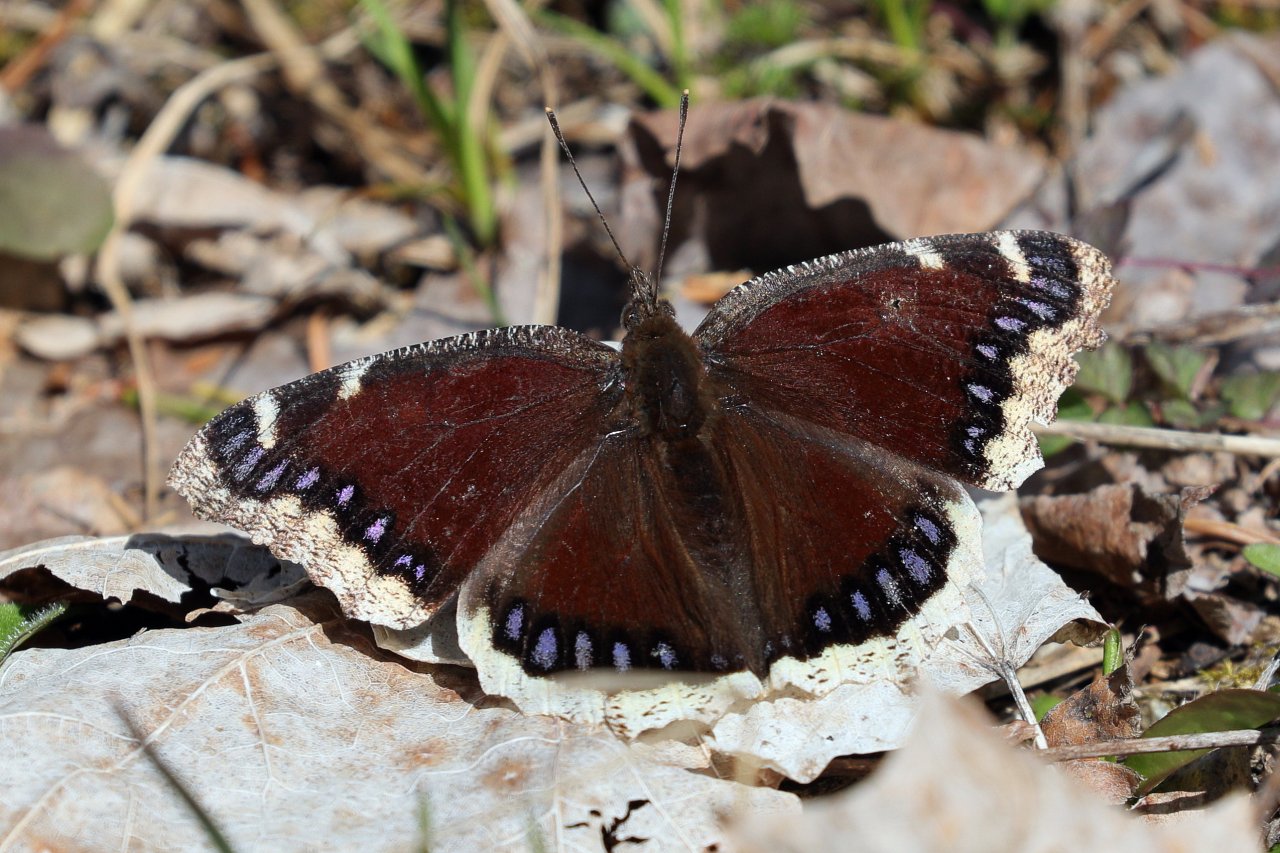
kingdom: Animalia
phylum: Arthropoda
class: Insecta
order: Lepidoptera
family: Nymphalidae
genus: Nymphalis
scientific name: Nymphalis antiopa
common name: Mourning Cloak
